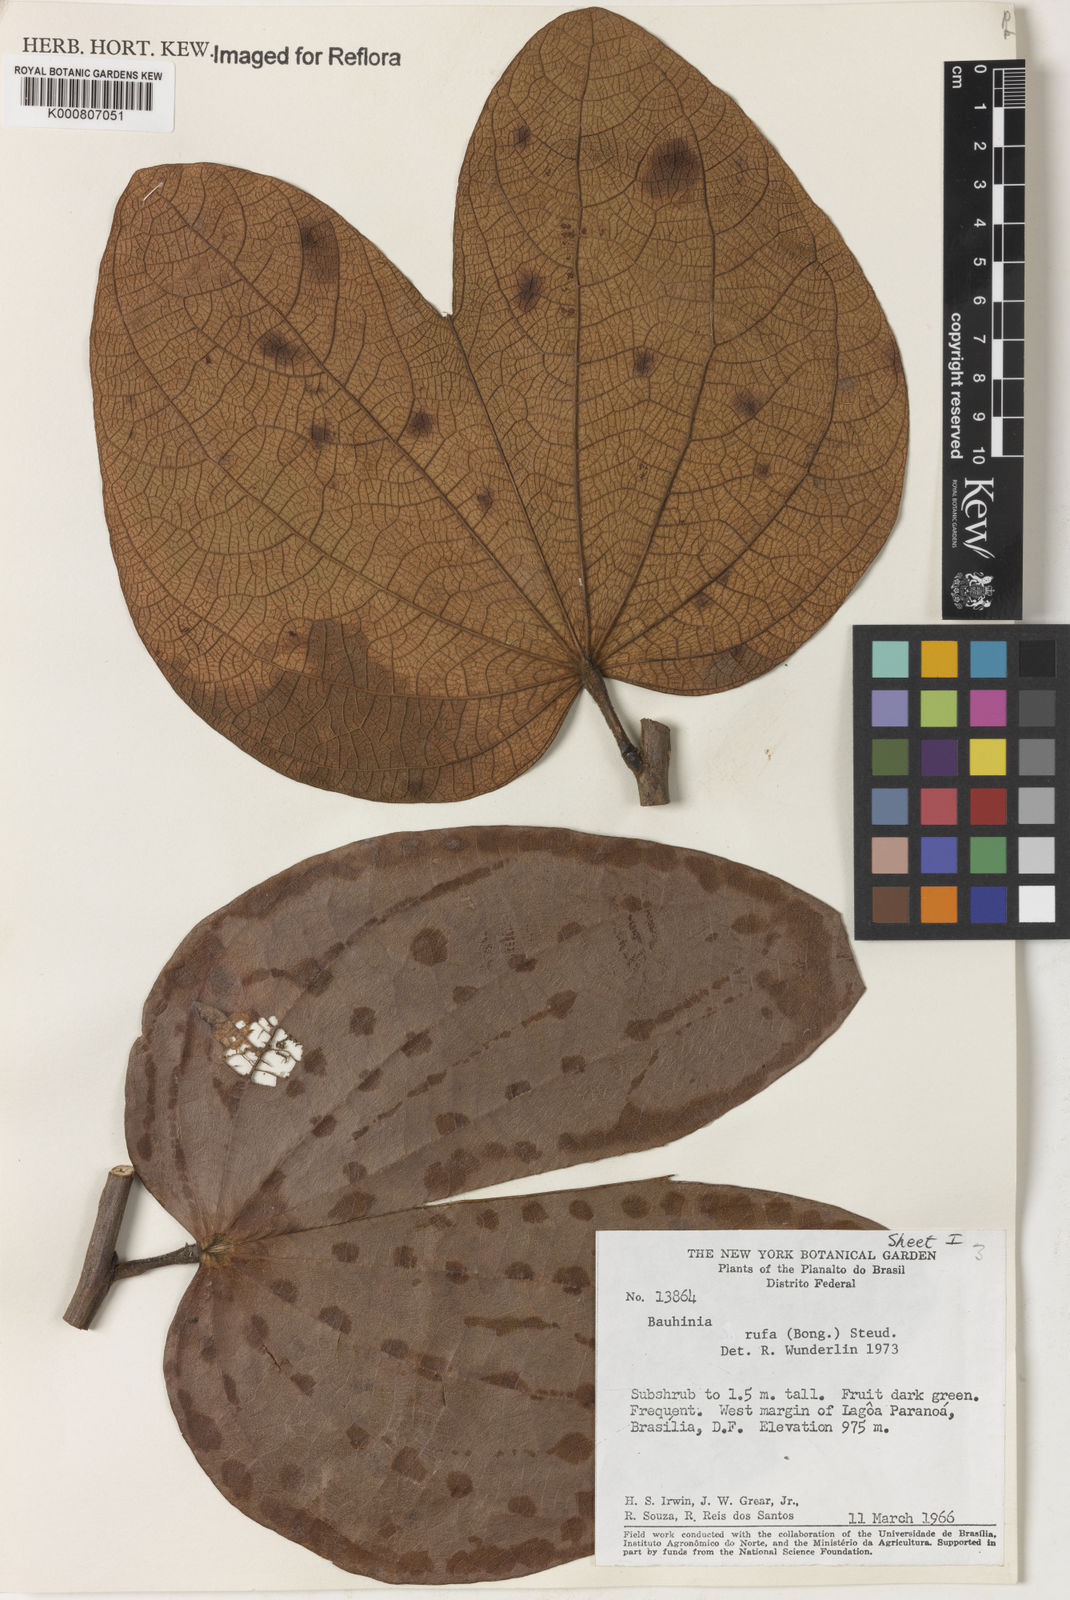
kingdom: Plantae
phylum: Tracheophyta
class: Magnoliopsida
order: Fabales
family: Fabaceae
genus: Bauhinia
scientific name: Bauhinia rufa
